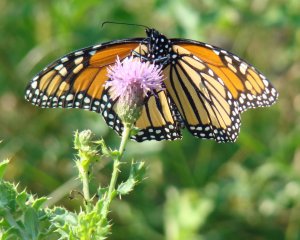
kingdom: Animalia
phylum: Arthropoda
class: Insecta
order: Lepidoptera
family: Nymphalidae
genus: Danaus
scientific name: Danaus plexippus
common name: Monarch
